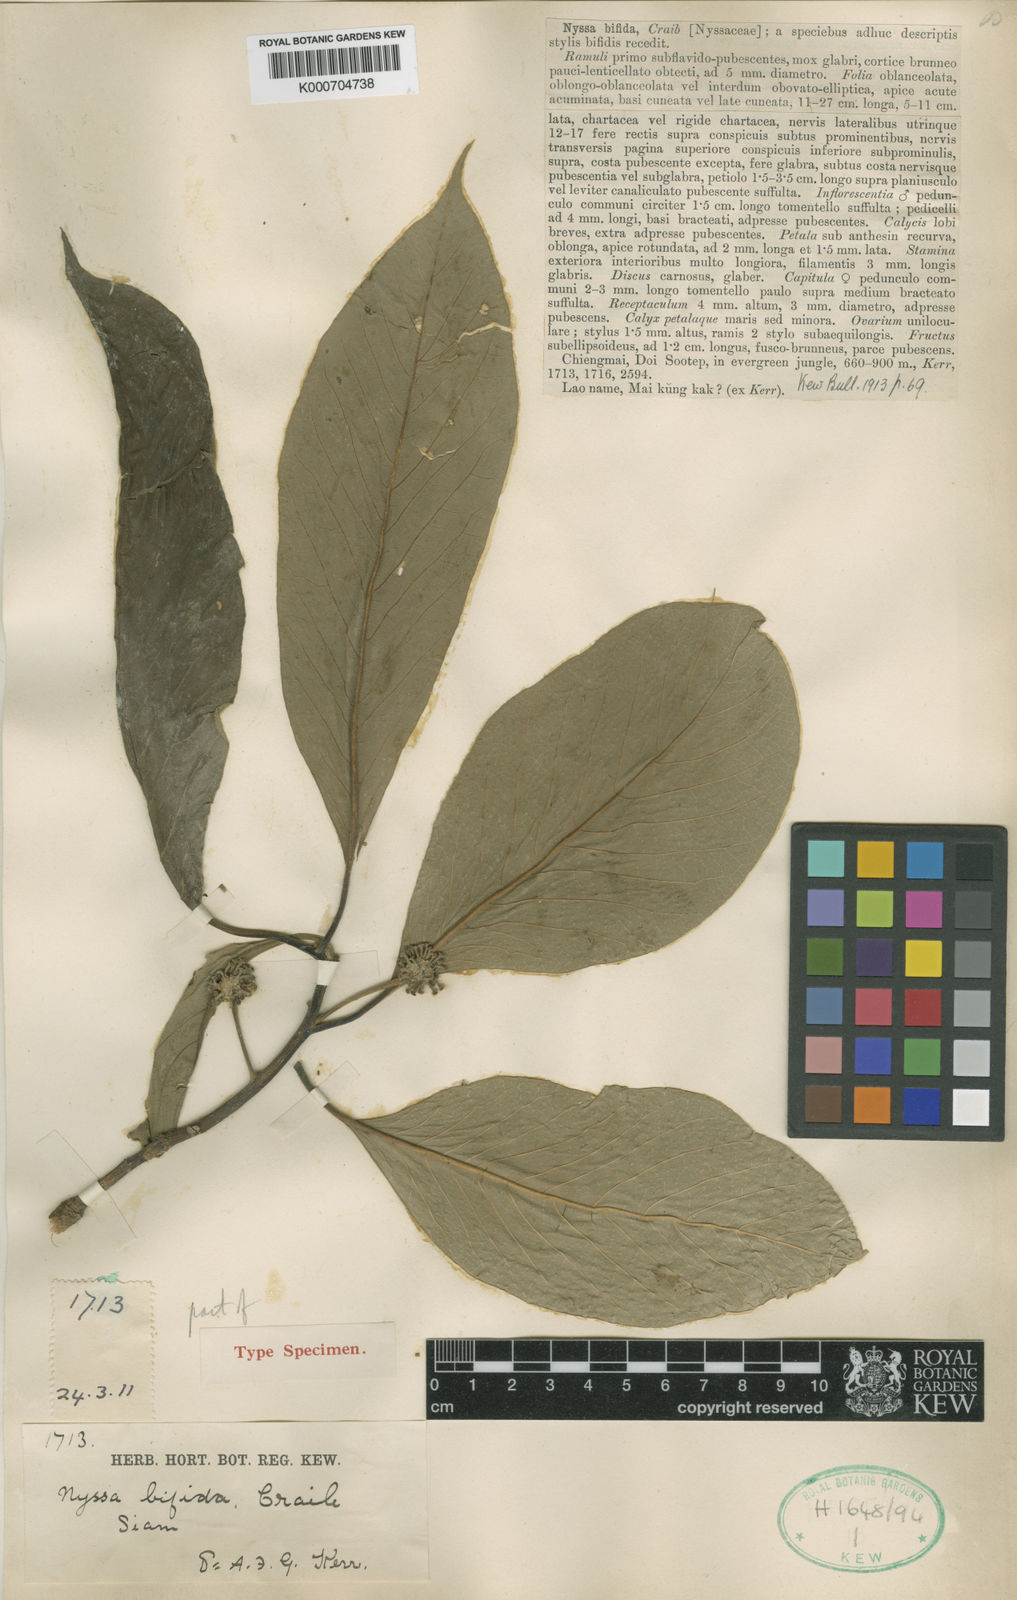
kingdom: Plantae
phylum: Tracheophyta
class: Magnoliopsida
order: Cornales
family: Nyssaceae
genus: Nyssa
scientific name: Nyssa bifida
